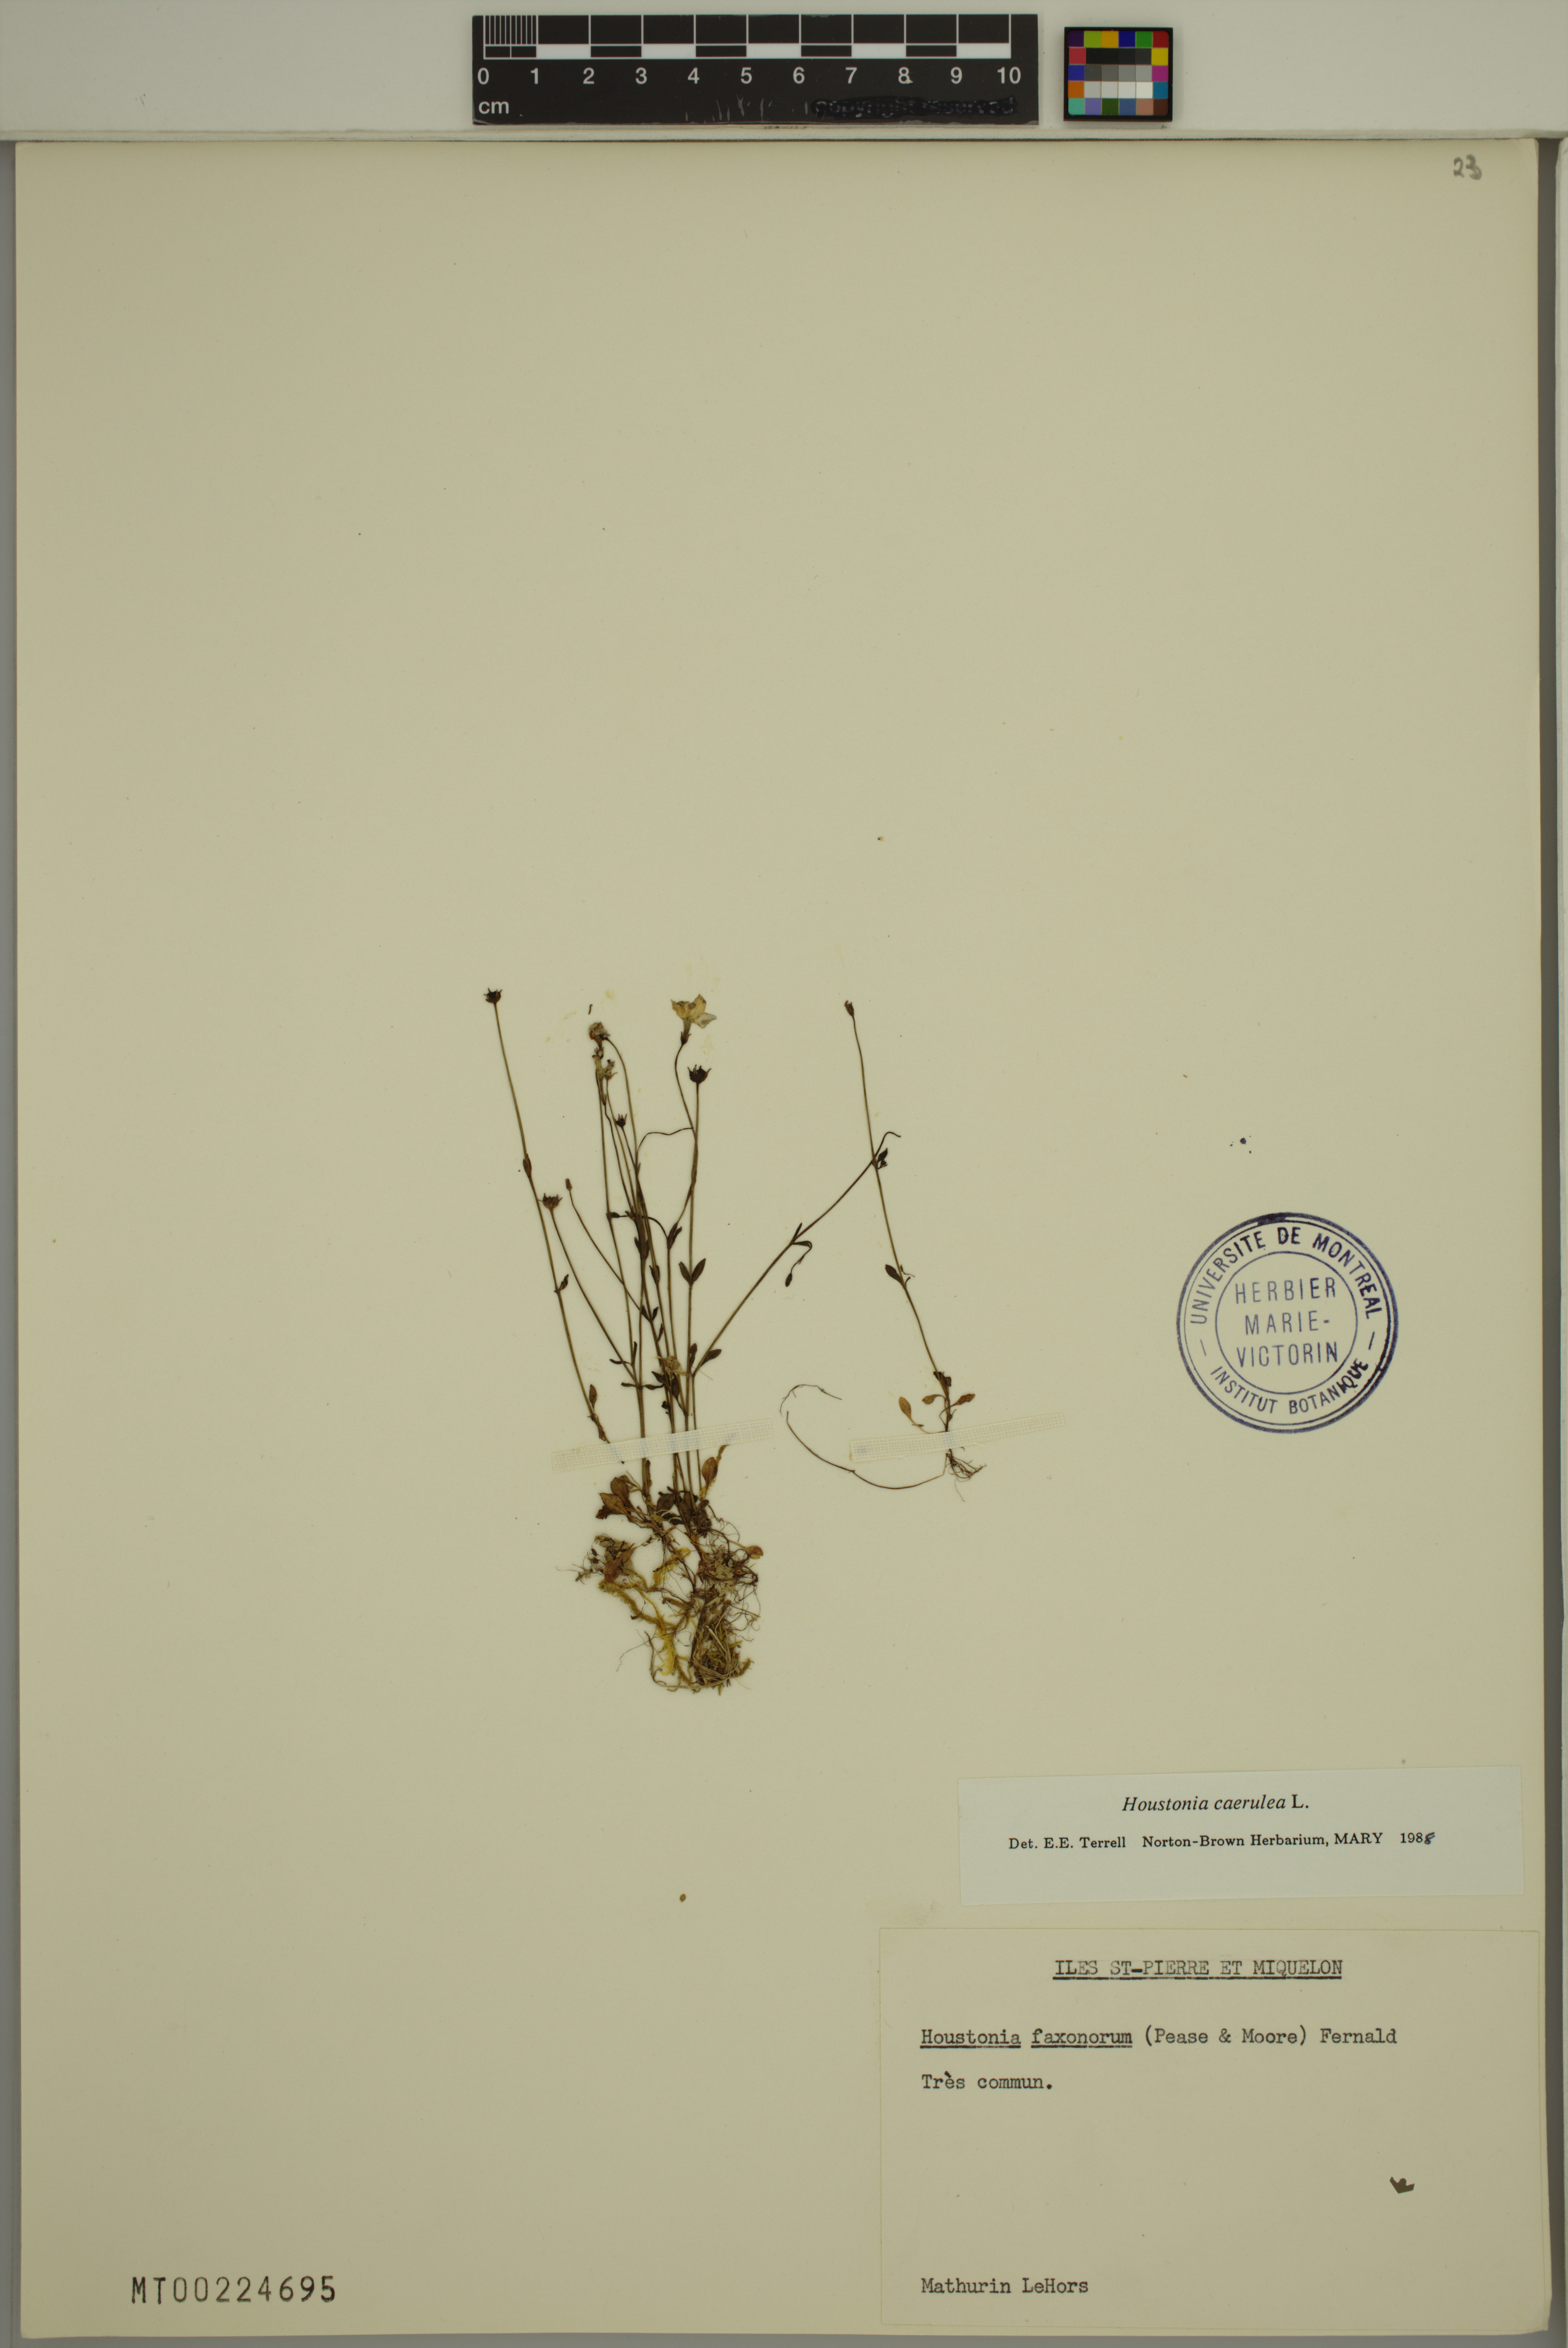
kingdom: Plantae
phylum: Tracheophyta
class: Magnoliopsida
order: Gentianales
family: Rubiaceae
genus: Houstonia
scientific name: Houstonia caerulea
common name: Bluets
